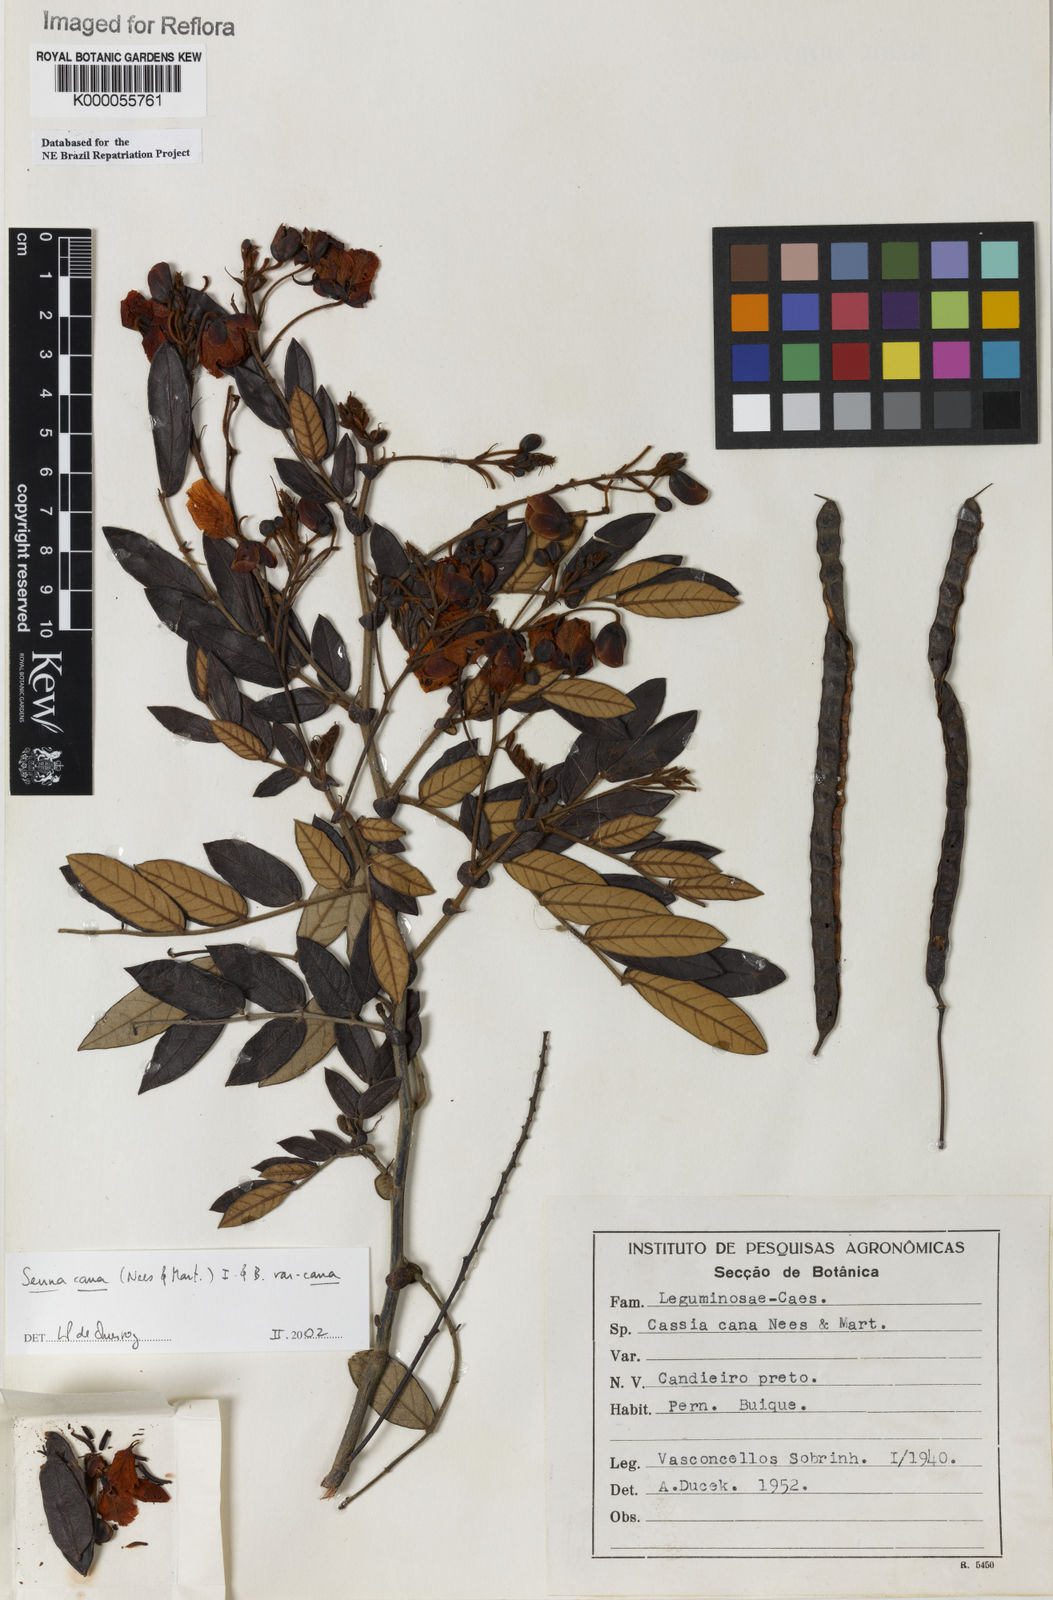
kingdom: Plantae
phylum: Tracheophyta
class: Magnoliopsida
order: Fabales
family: Fabaceae
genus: Senna
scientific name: Senna cana
